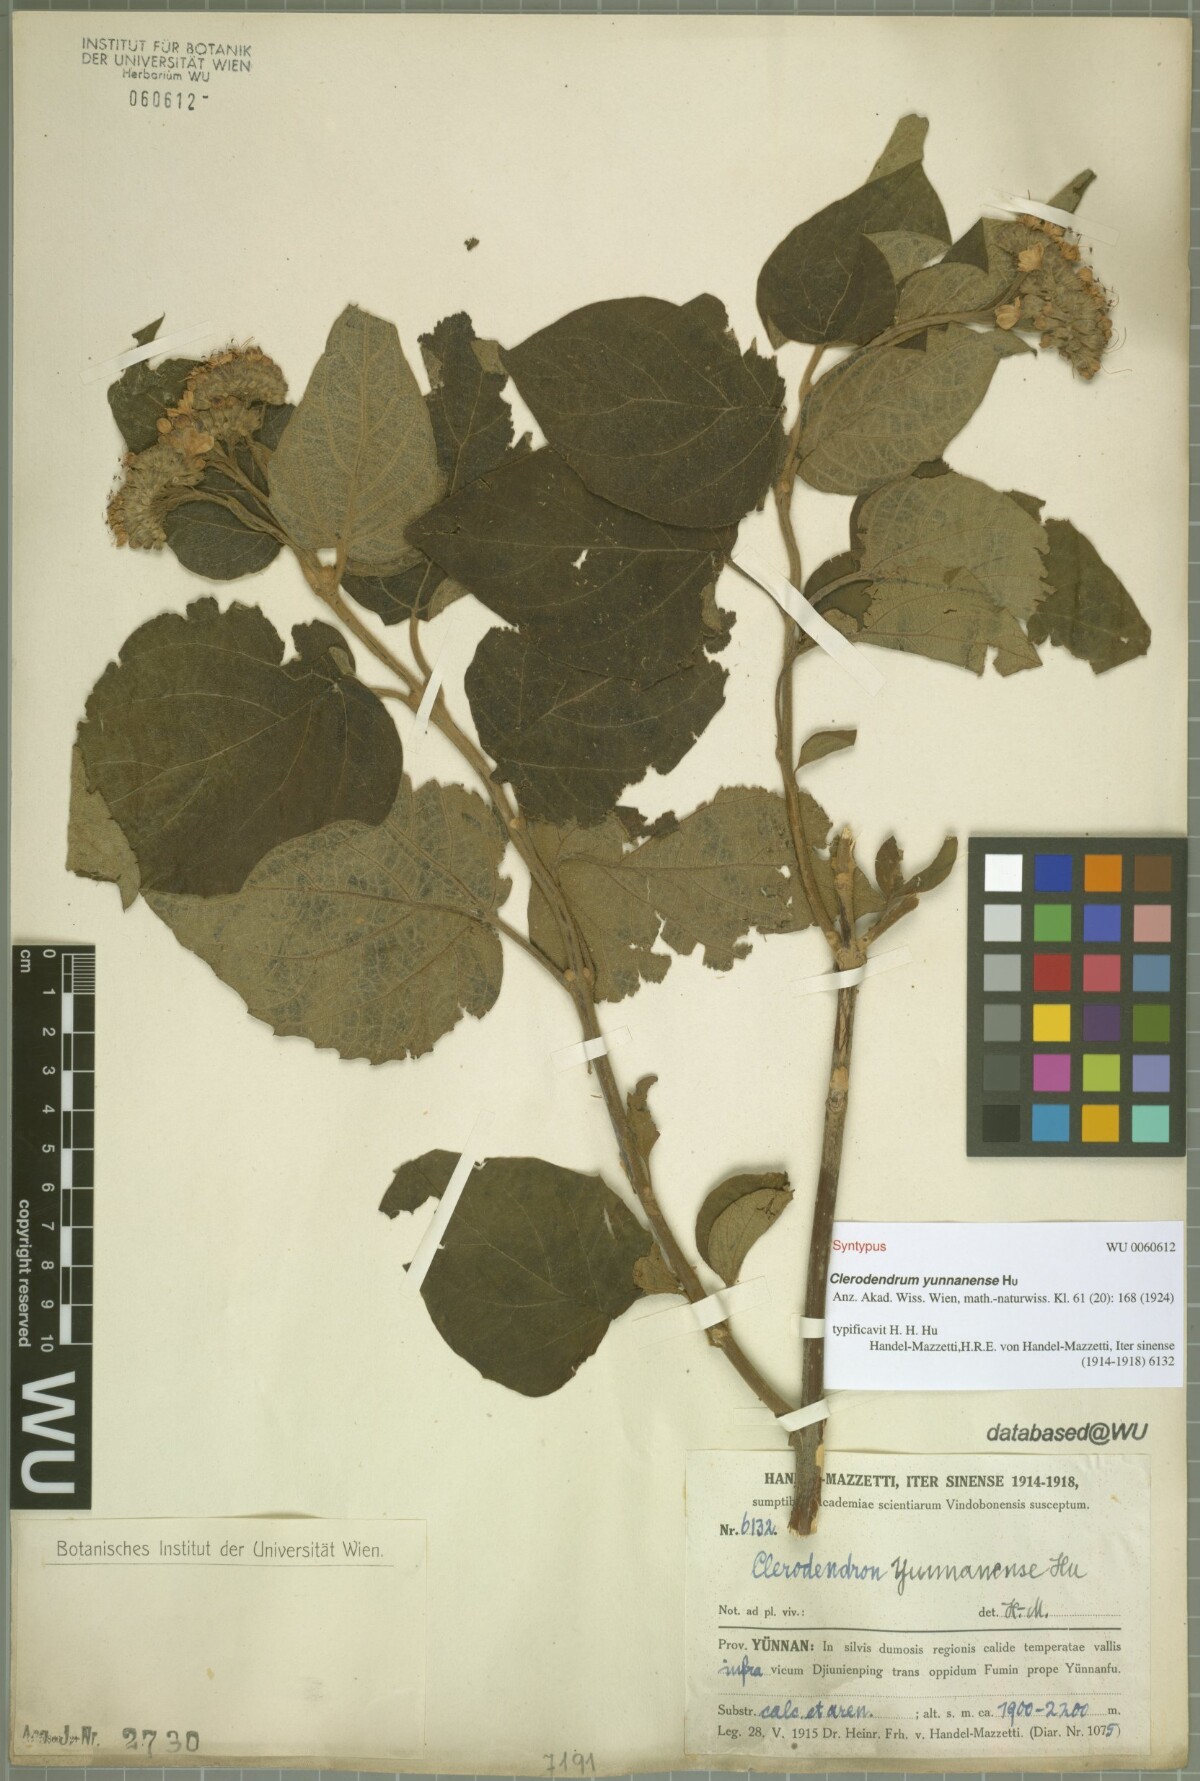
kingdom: Plantae
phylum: Tracheophyta
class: Magnoliopsida
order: Lamiales
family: Lamiaceae
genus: Clerodendrum
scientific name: Clerodendrum yunnanense
